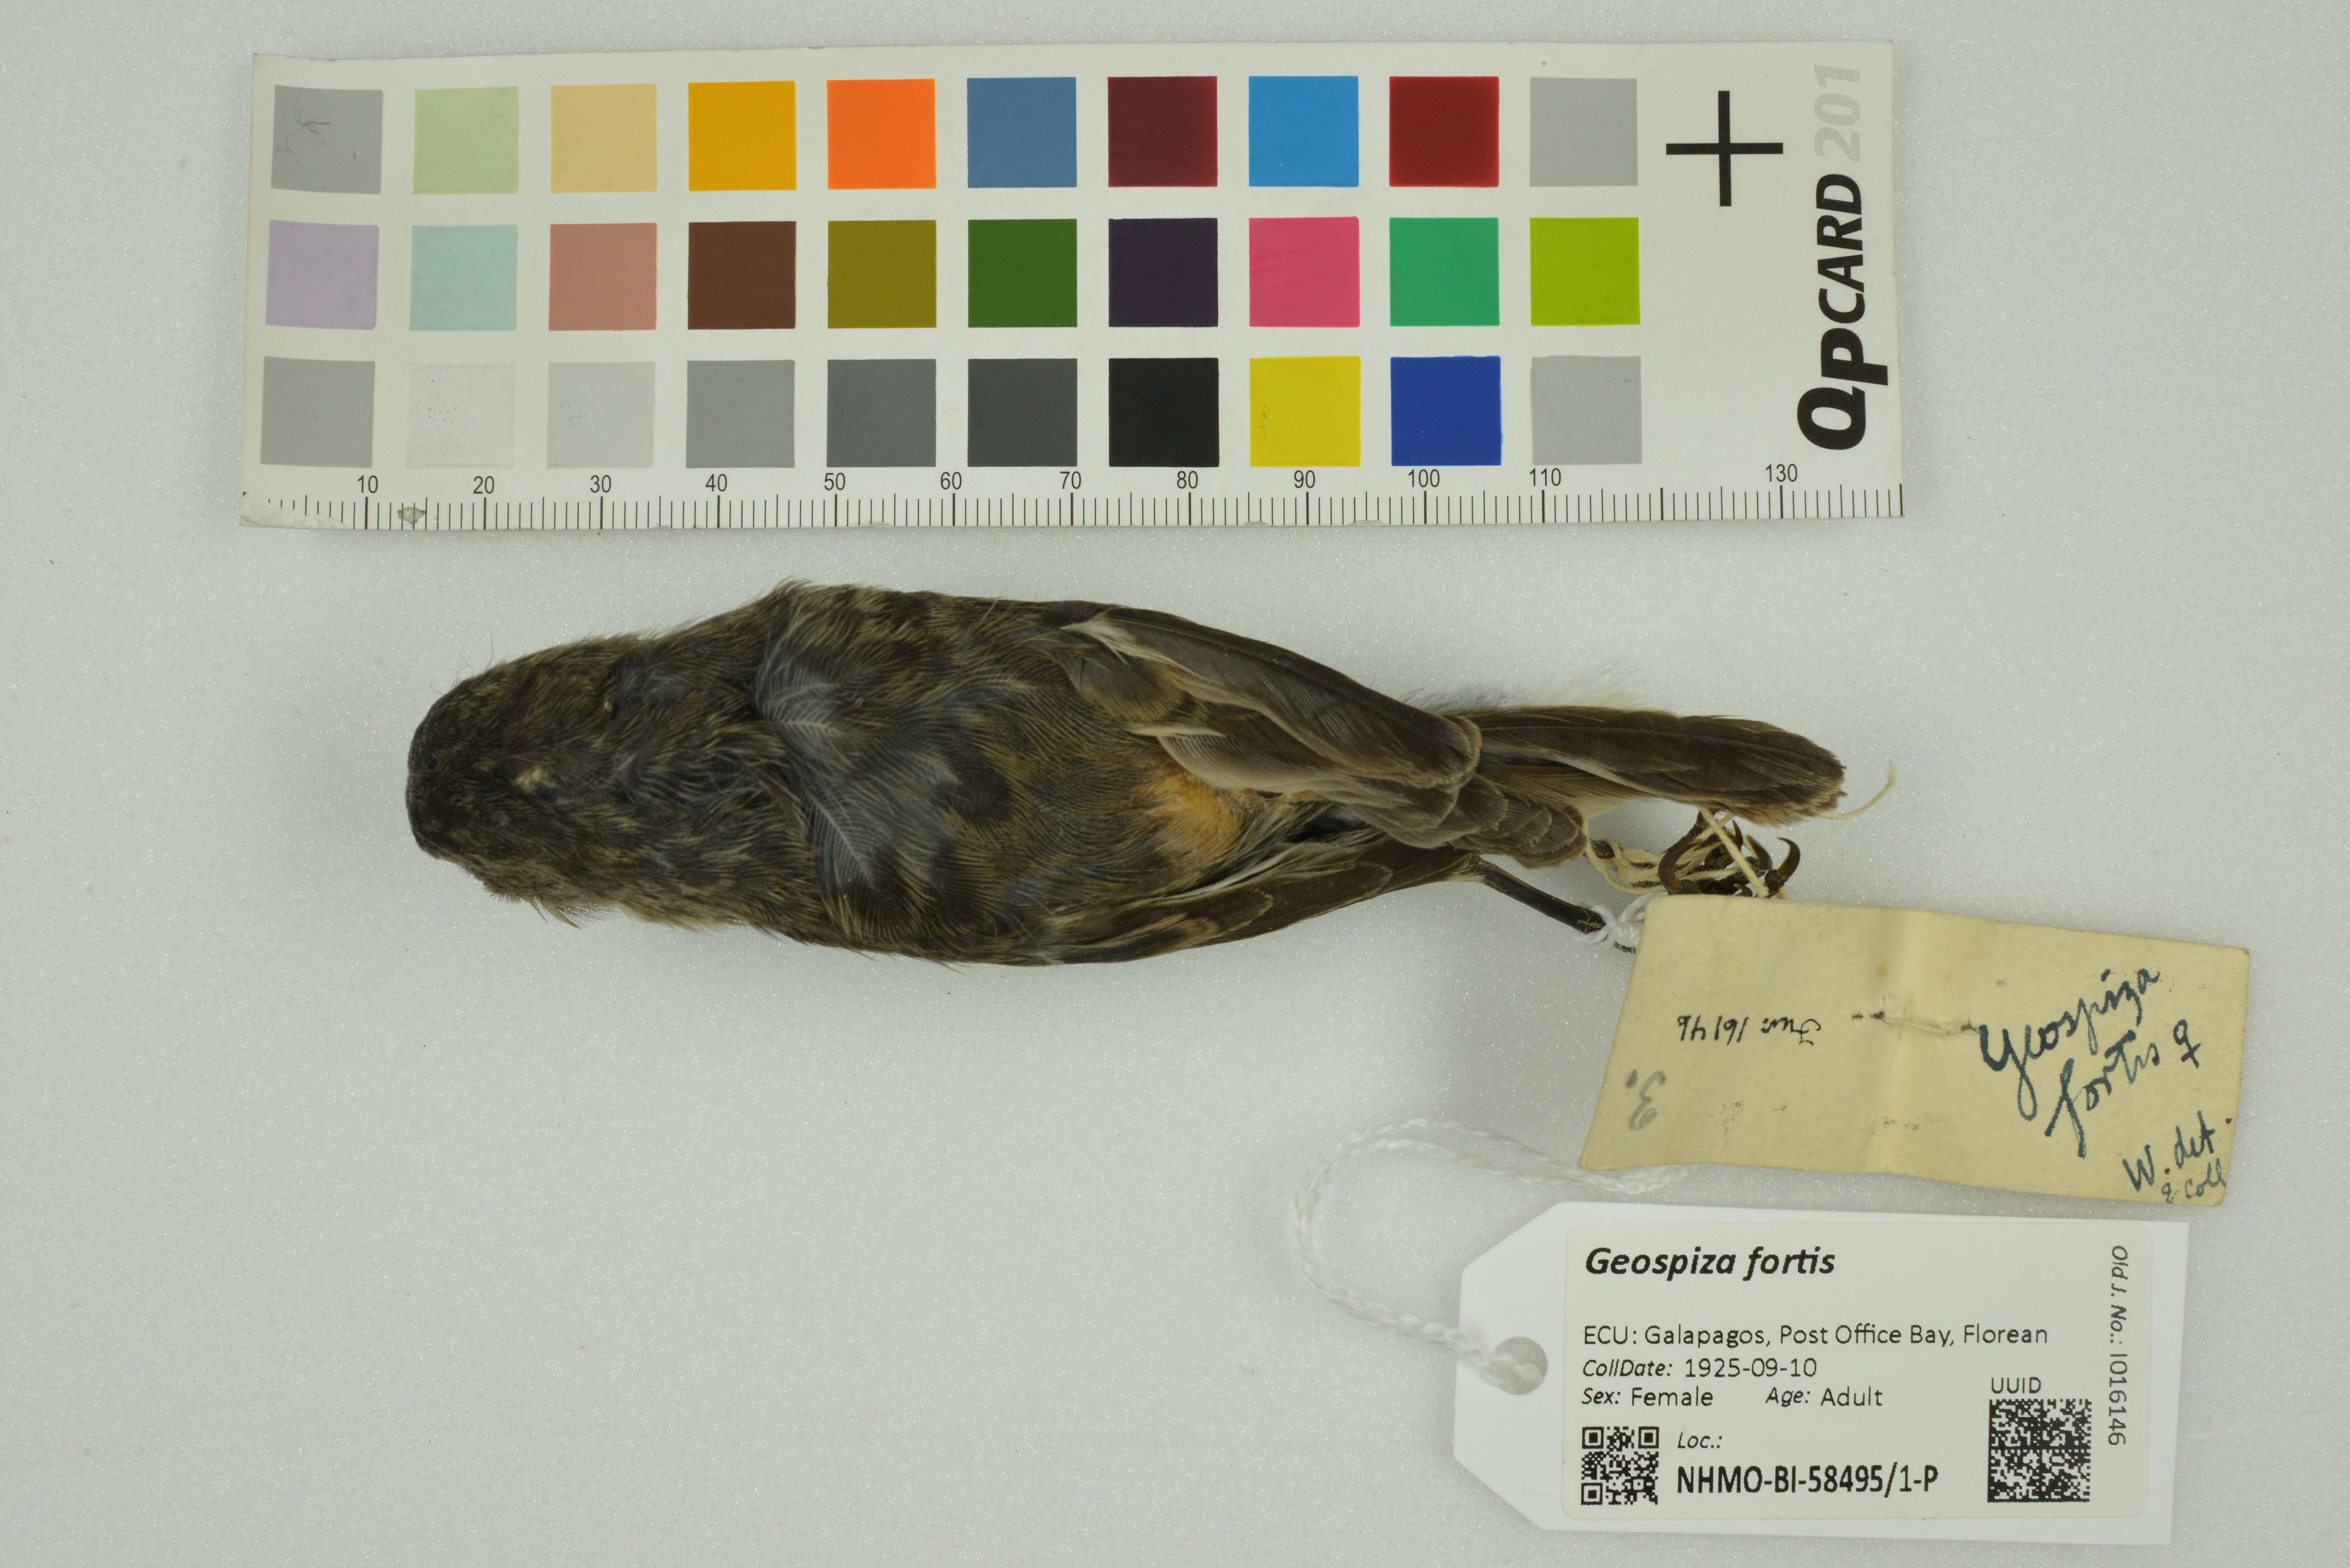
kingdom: Animalia
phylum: Chordata
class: Aves
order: Passeriformes
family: Thraupidae
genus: Geospiza
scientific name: Geospiza fortis
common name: Medium ground finch
